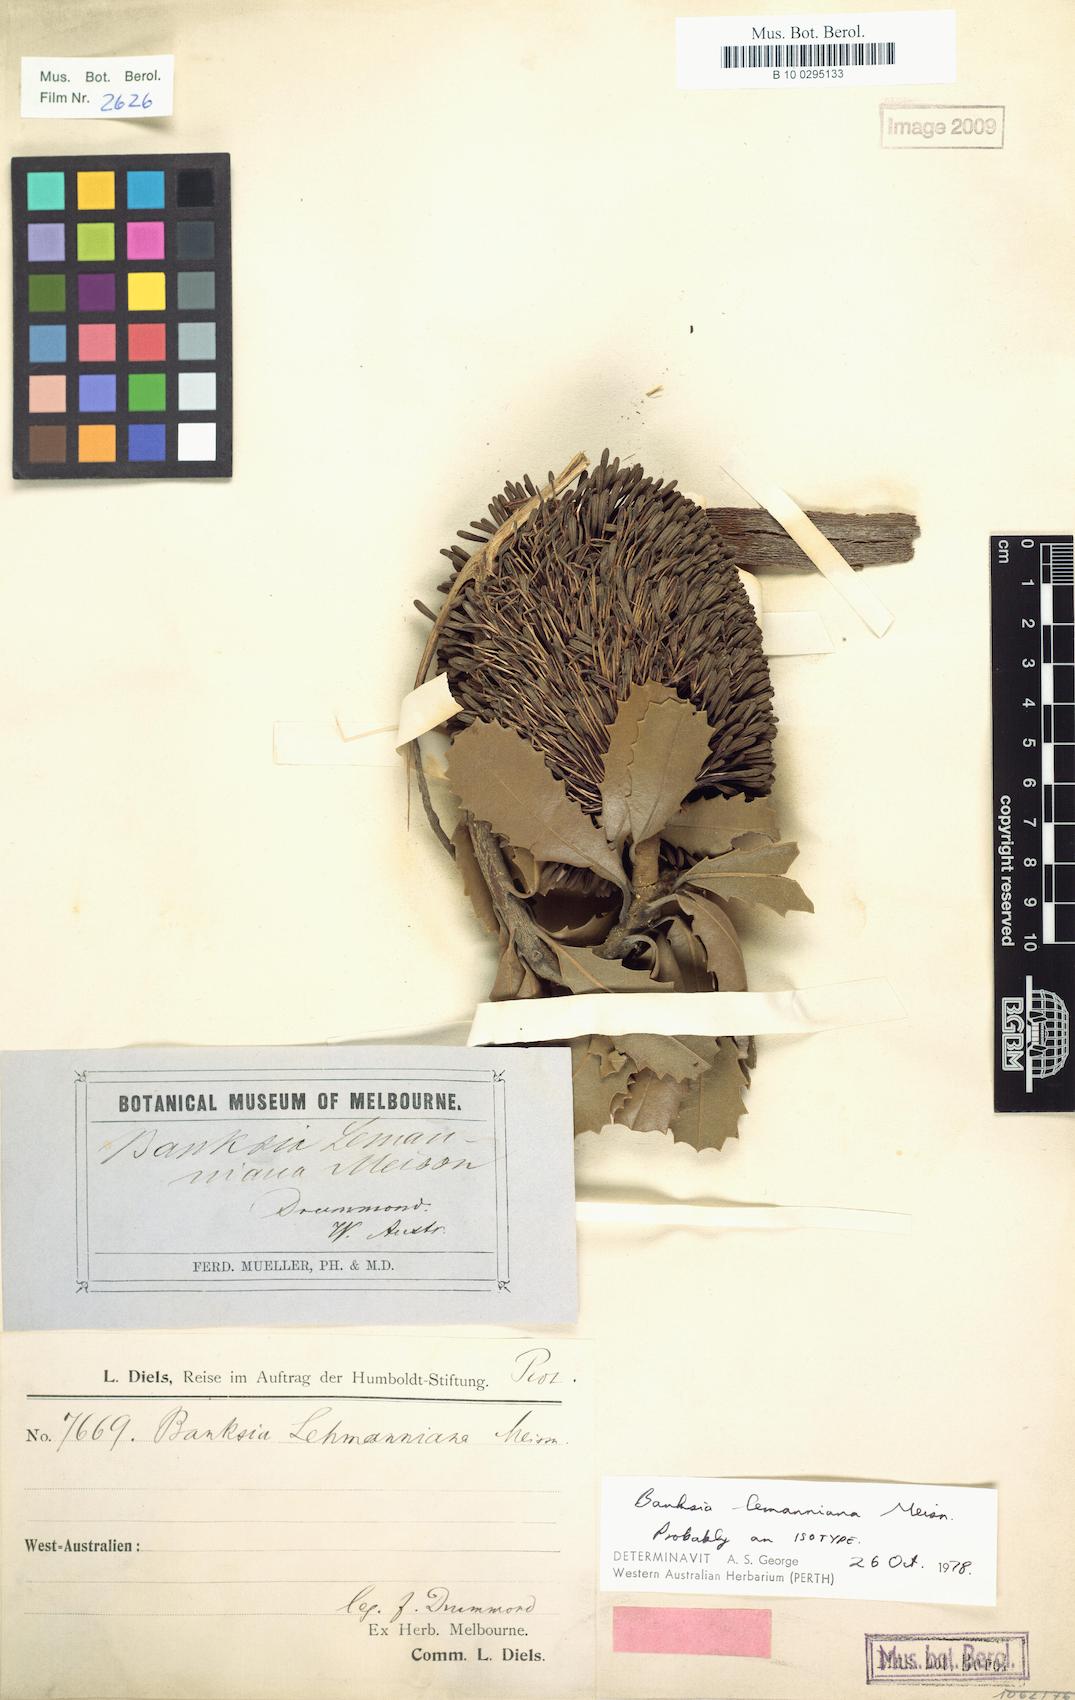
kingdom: Plantae
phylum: Tracheophyta
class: Magnoliopsida
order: Proteales
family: Proteaceae
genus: Banksia
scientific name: Banksia lehmanniana
